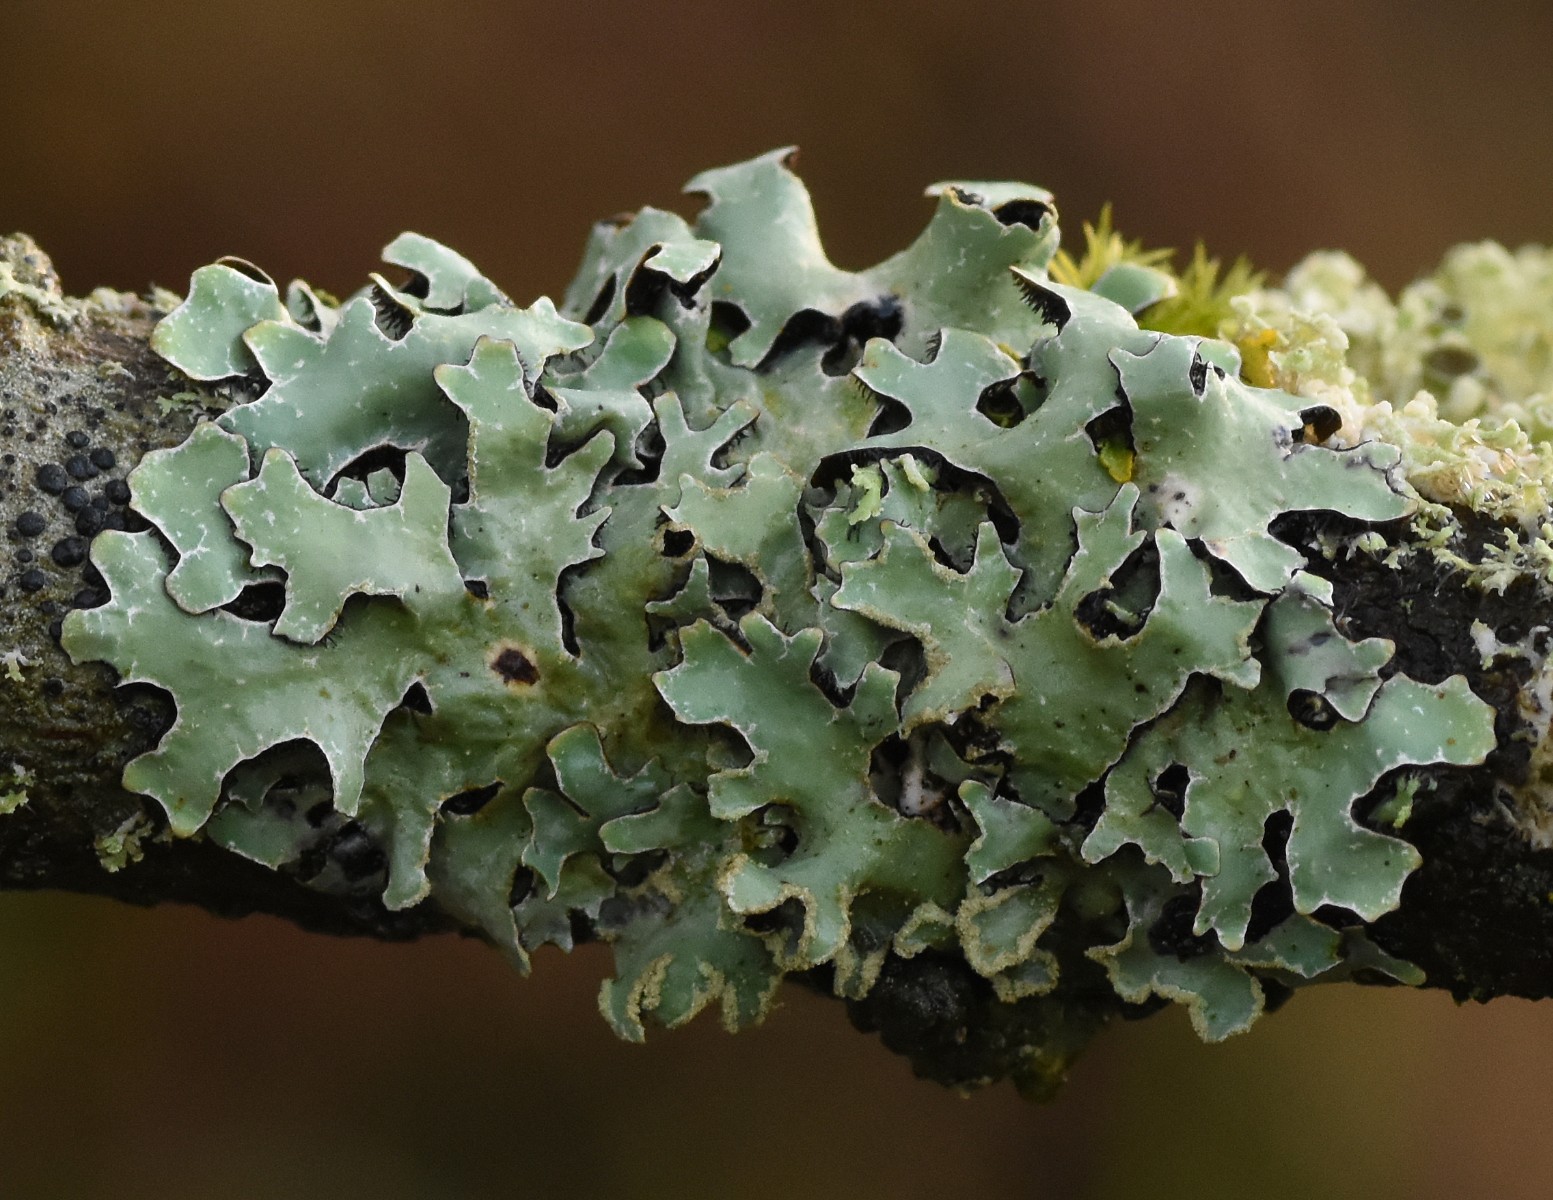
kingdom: Fungi
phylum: Ascomycota
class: Lecanoromycetes
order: Lecanorales
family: Parmeliaceae
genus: Parmelia
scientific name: Parmelia sulcata
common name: rynket skållav
